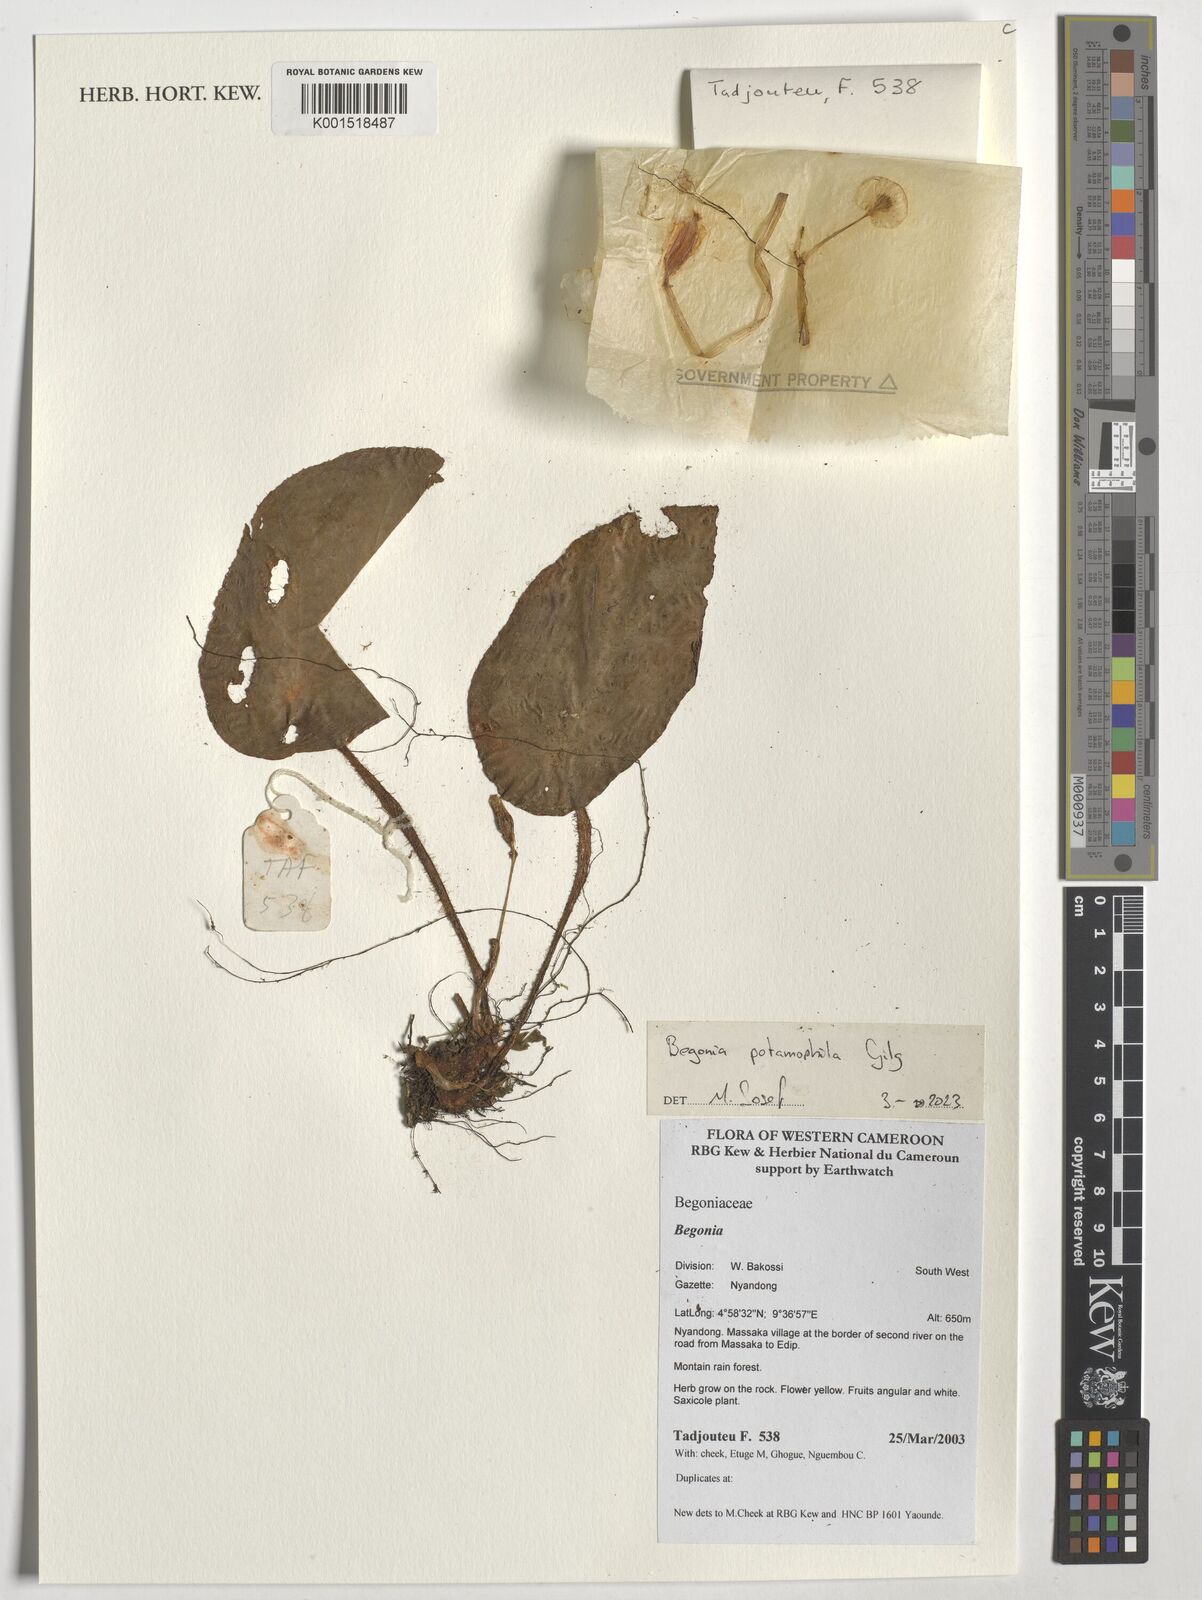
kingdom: Plantae
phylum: Tracheophyta
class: Magnoliopsida
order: Cucurbitales
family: Begoniaceae
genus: Begonia
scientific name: Begonia potamophila
